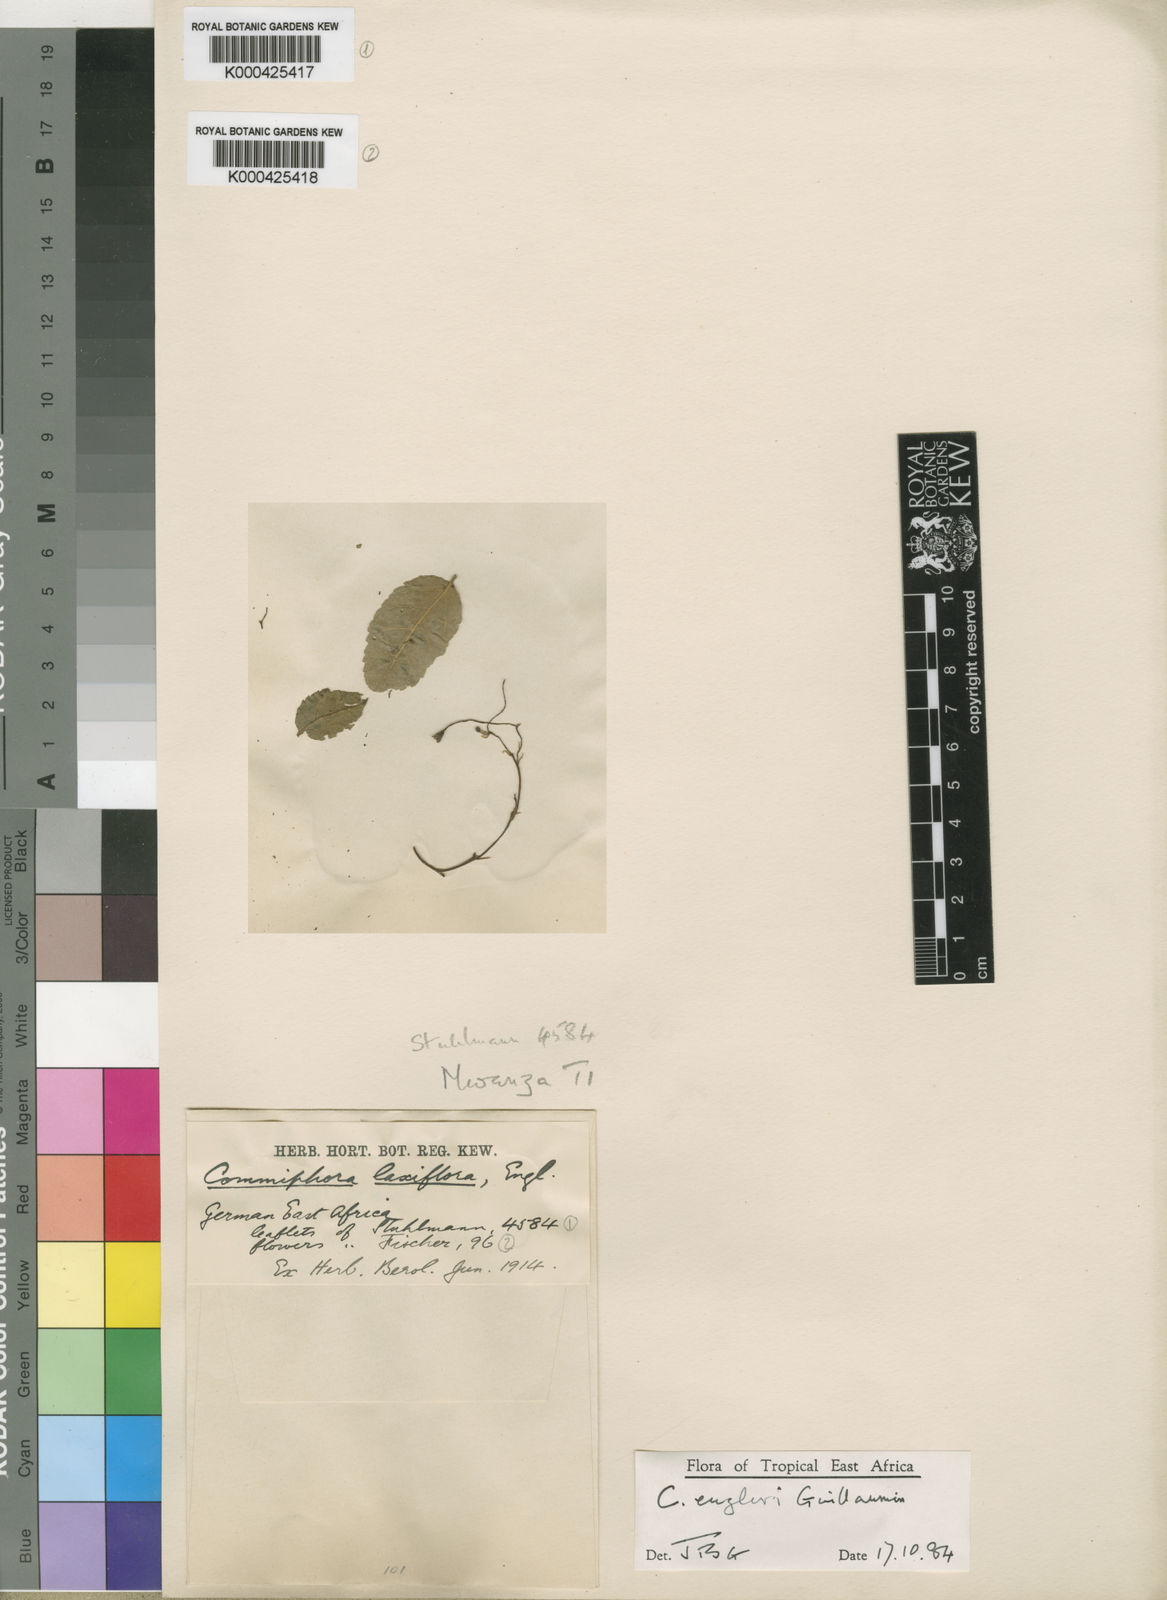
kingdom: Plantae
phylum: Tracheophyta
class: Magnoliopsida
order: Sapindales
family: Burseraceae
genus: Commiphora
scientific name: Commiphora engleri
